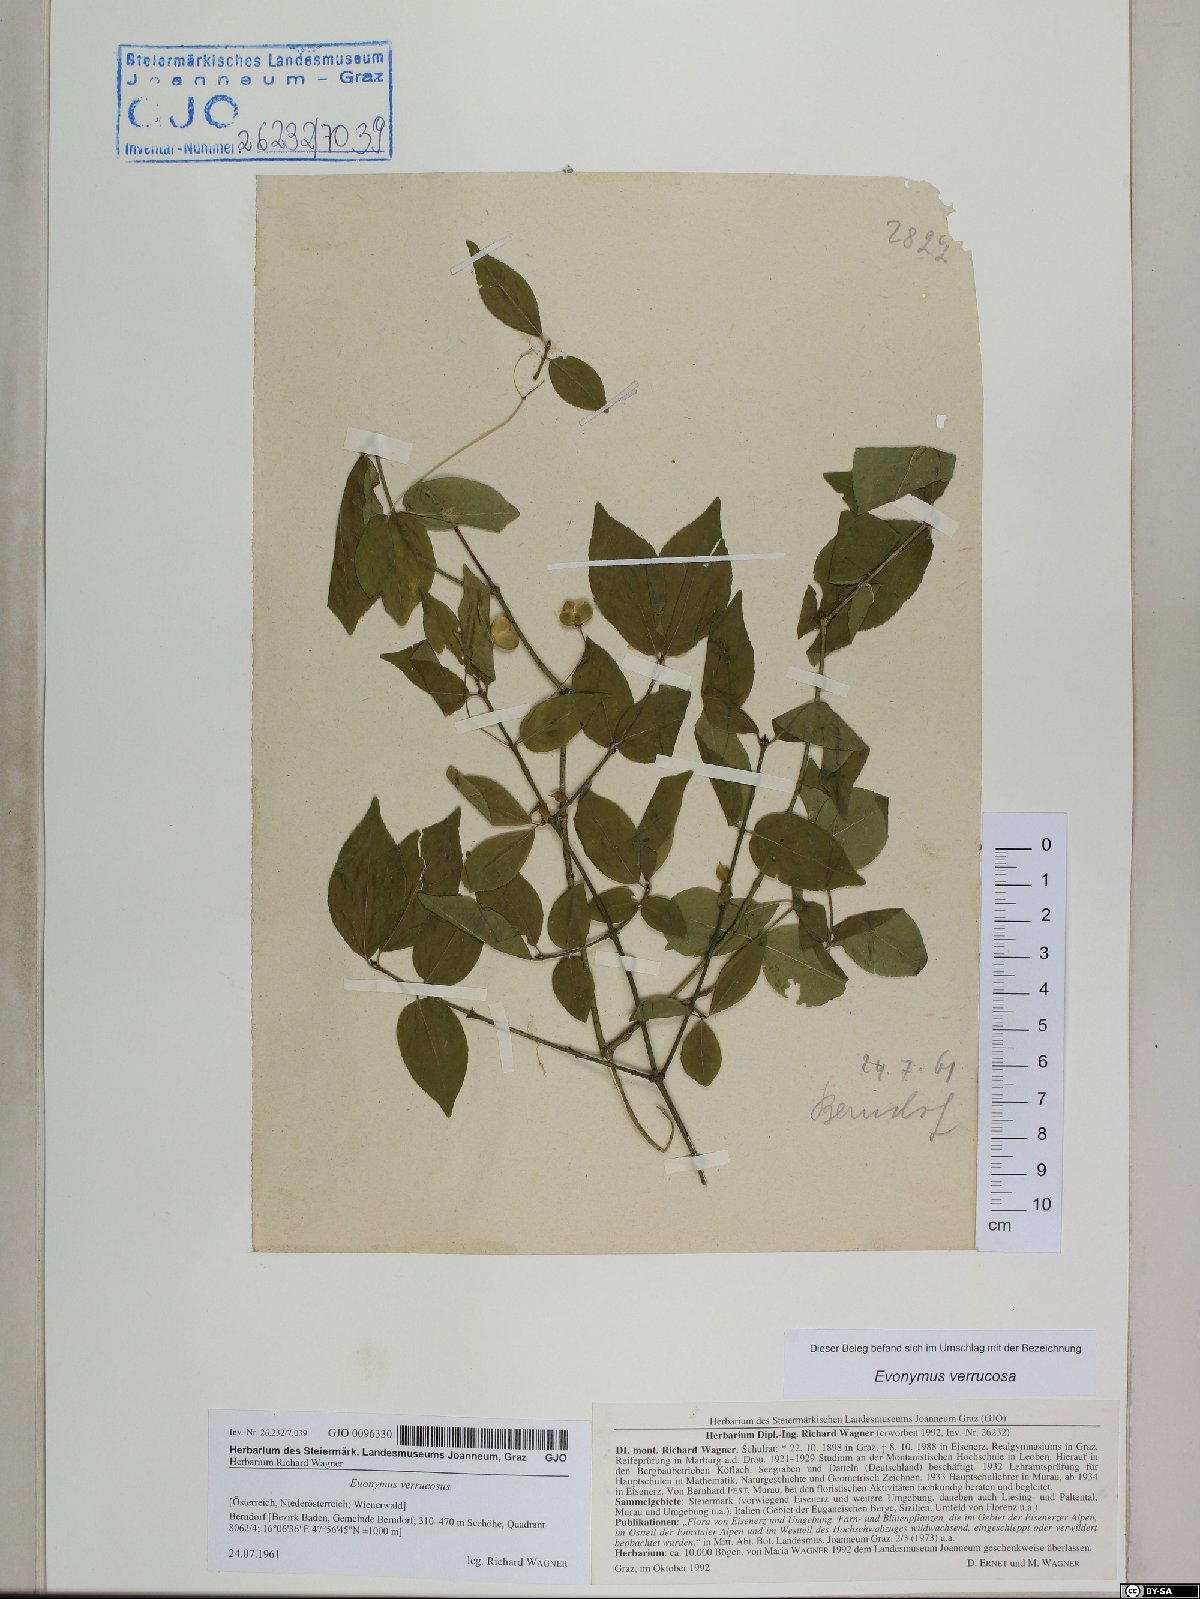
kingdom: Plantae
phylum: Tracheophyta
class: Magnoliopsida
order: Celastrales
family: Celastraceae
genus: Euonymus
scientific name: Euonymus verrucosus
